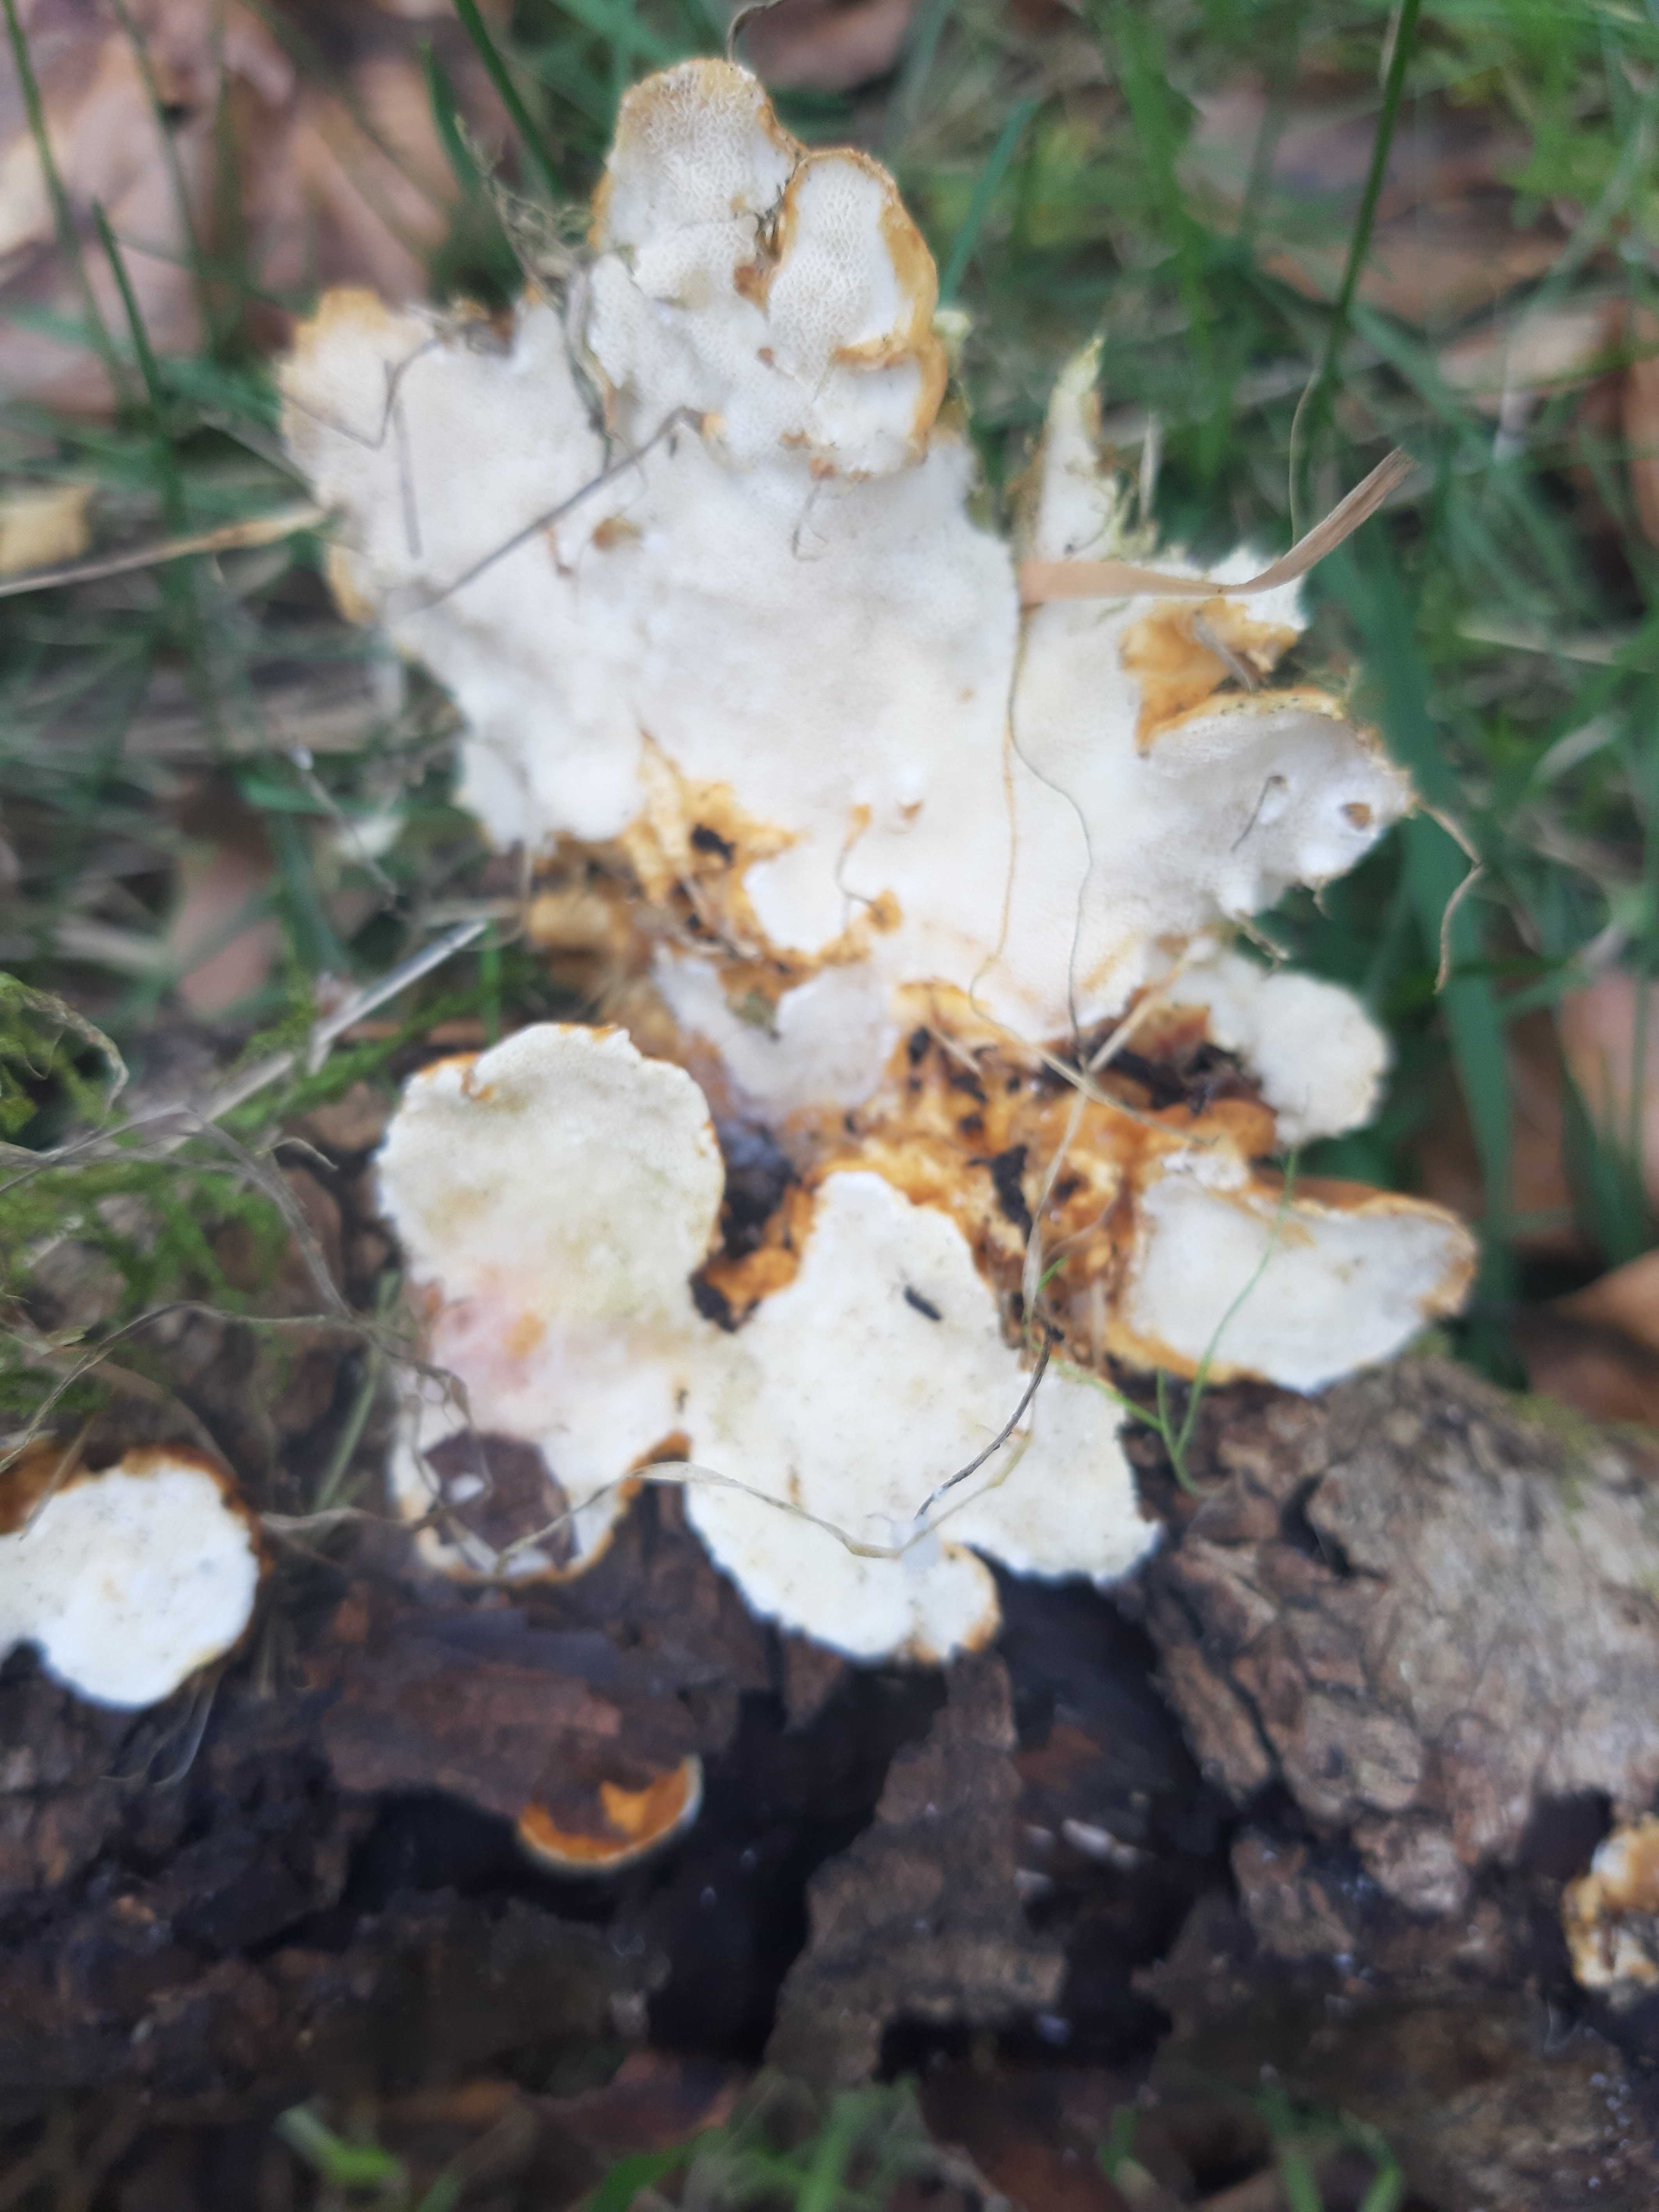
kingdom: Fungi
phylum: Basidiomycota
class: Agaricomycetes
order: Russulales
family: Bondarzewiaceae
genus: Heterobasidion
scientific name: Heterobasidion
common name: rodfordærver
